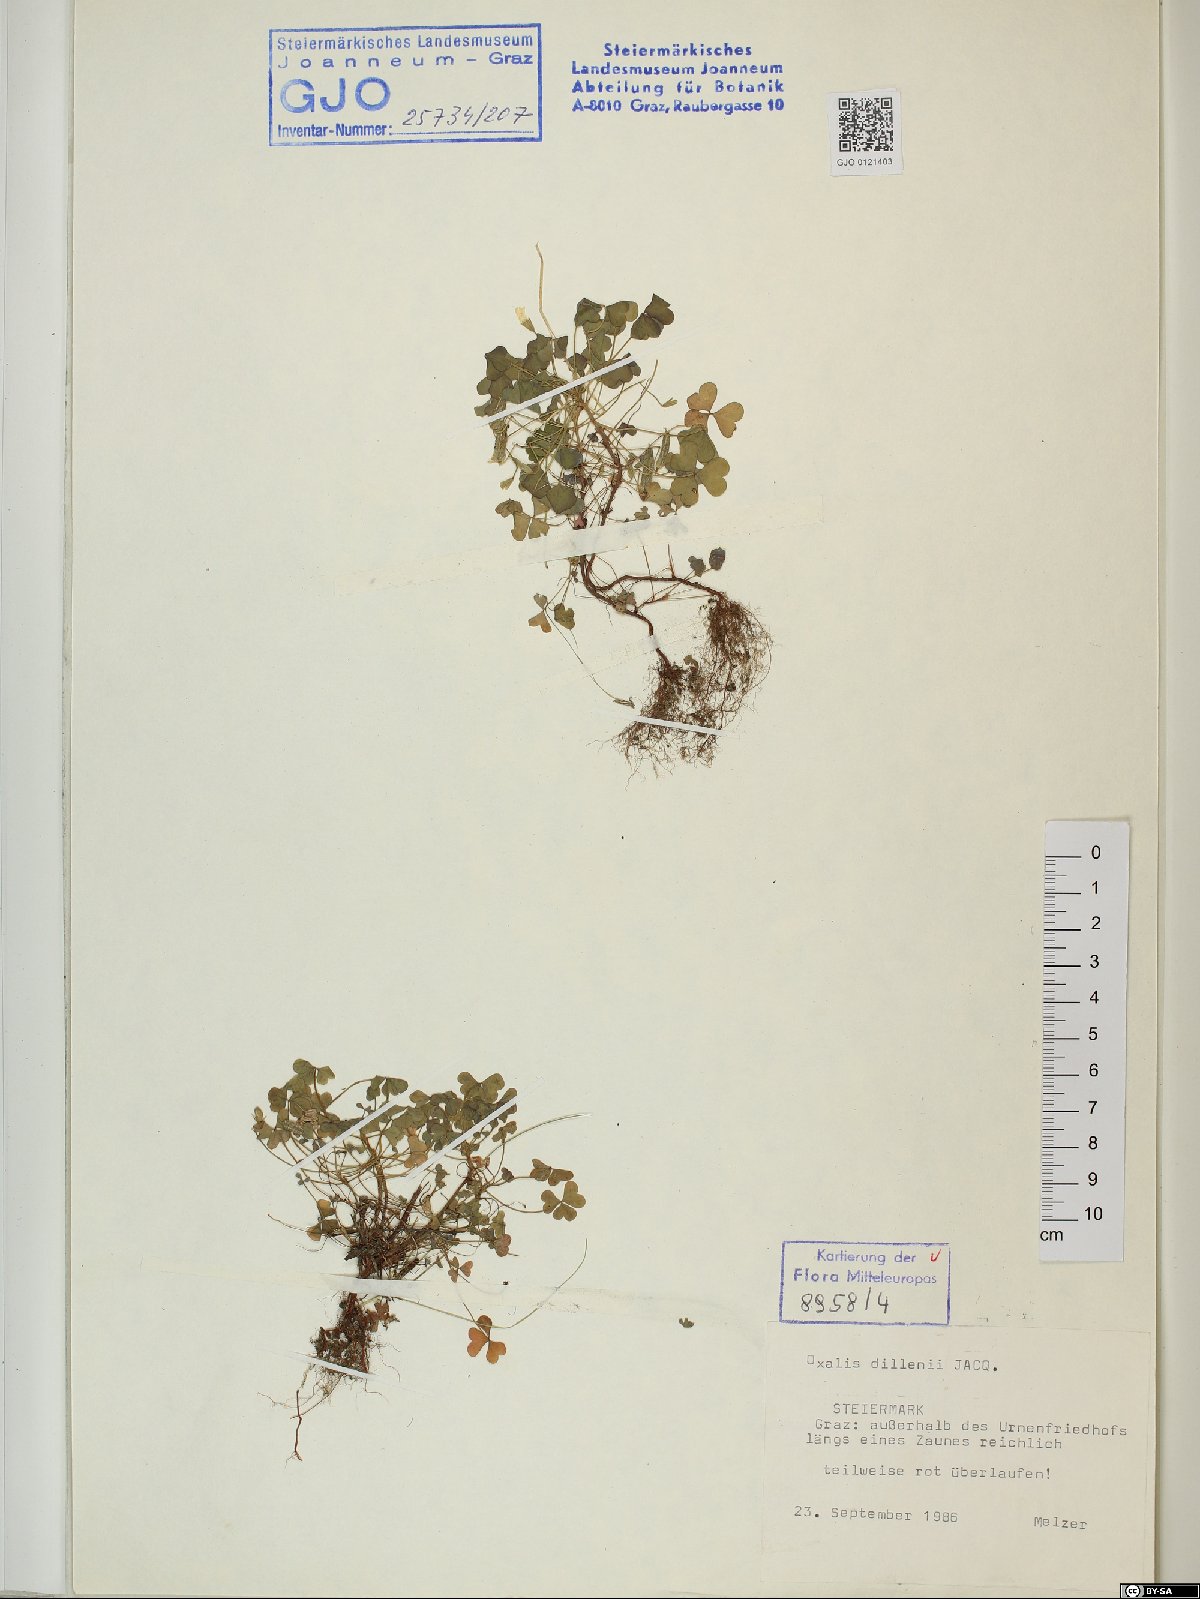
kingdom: Plantae
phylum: Tracheophyta
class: Magnoliopsida
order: Oxalidales
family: Oxalidaceae
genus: Oxalis
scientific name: Oxalis dillenii
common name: Sussex yellow-sorrel
